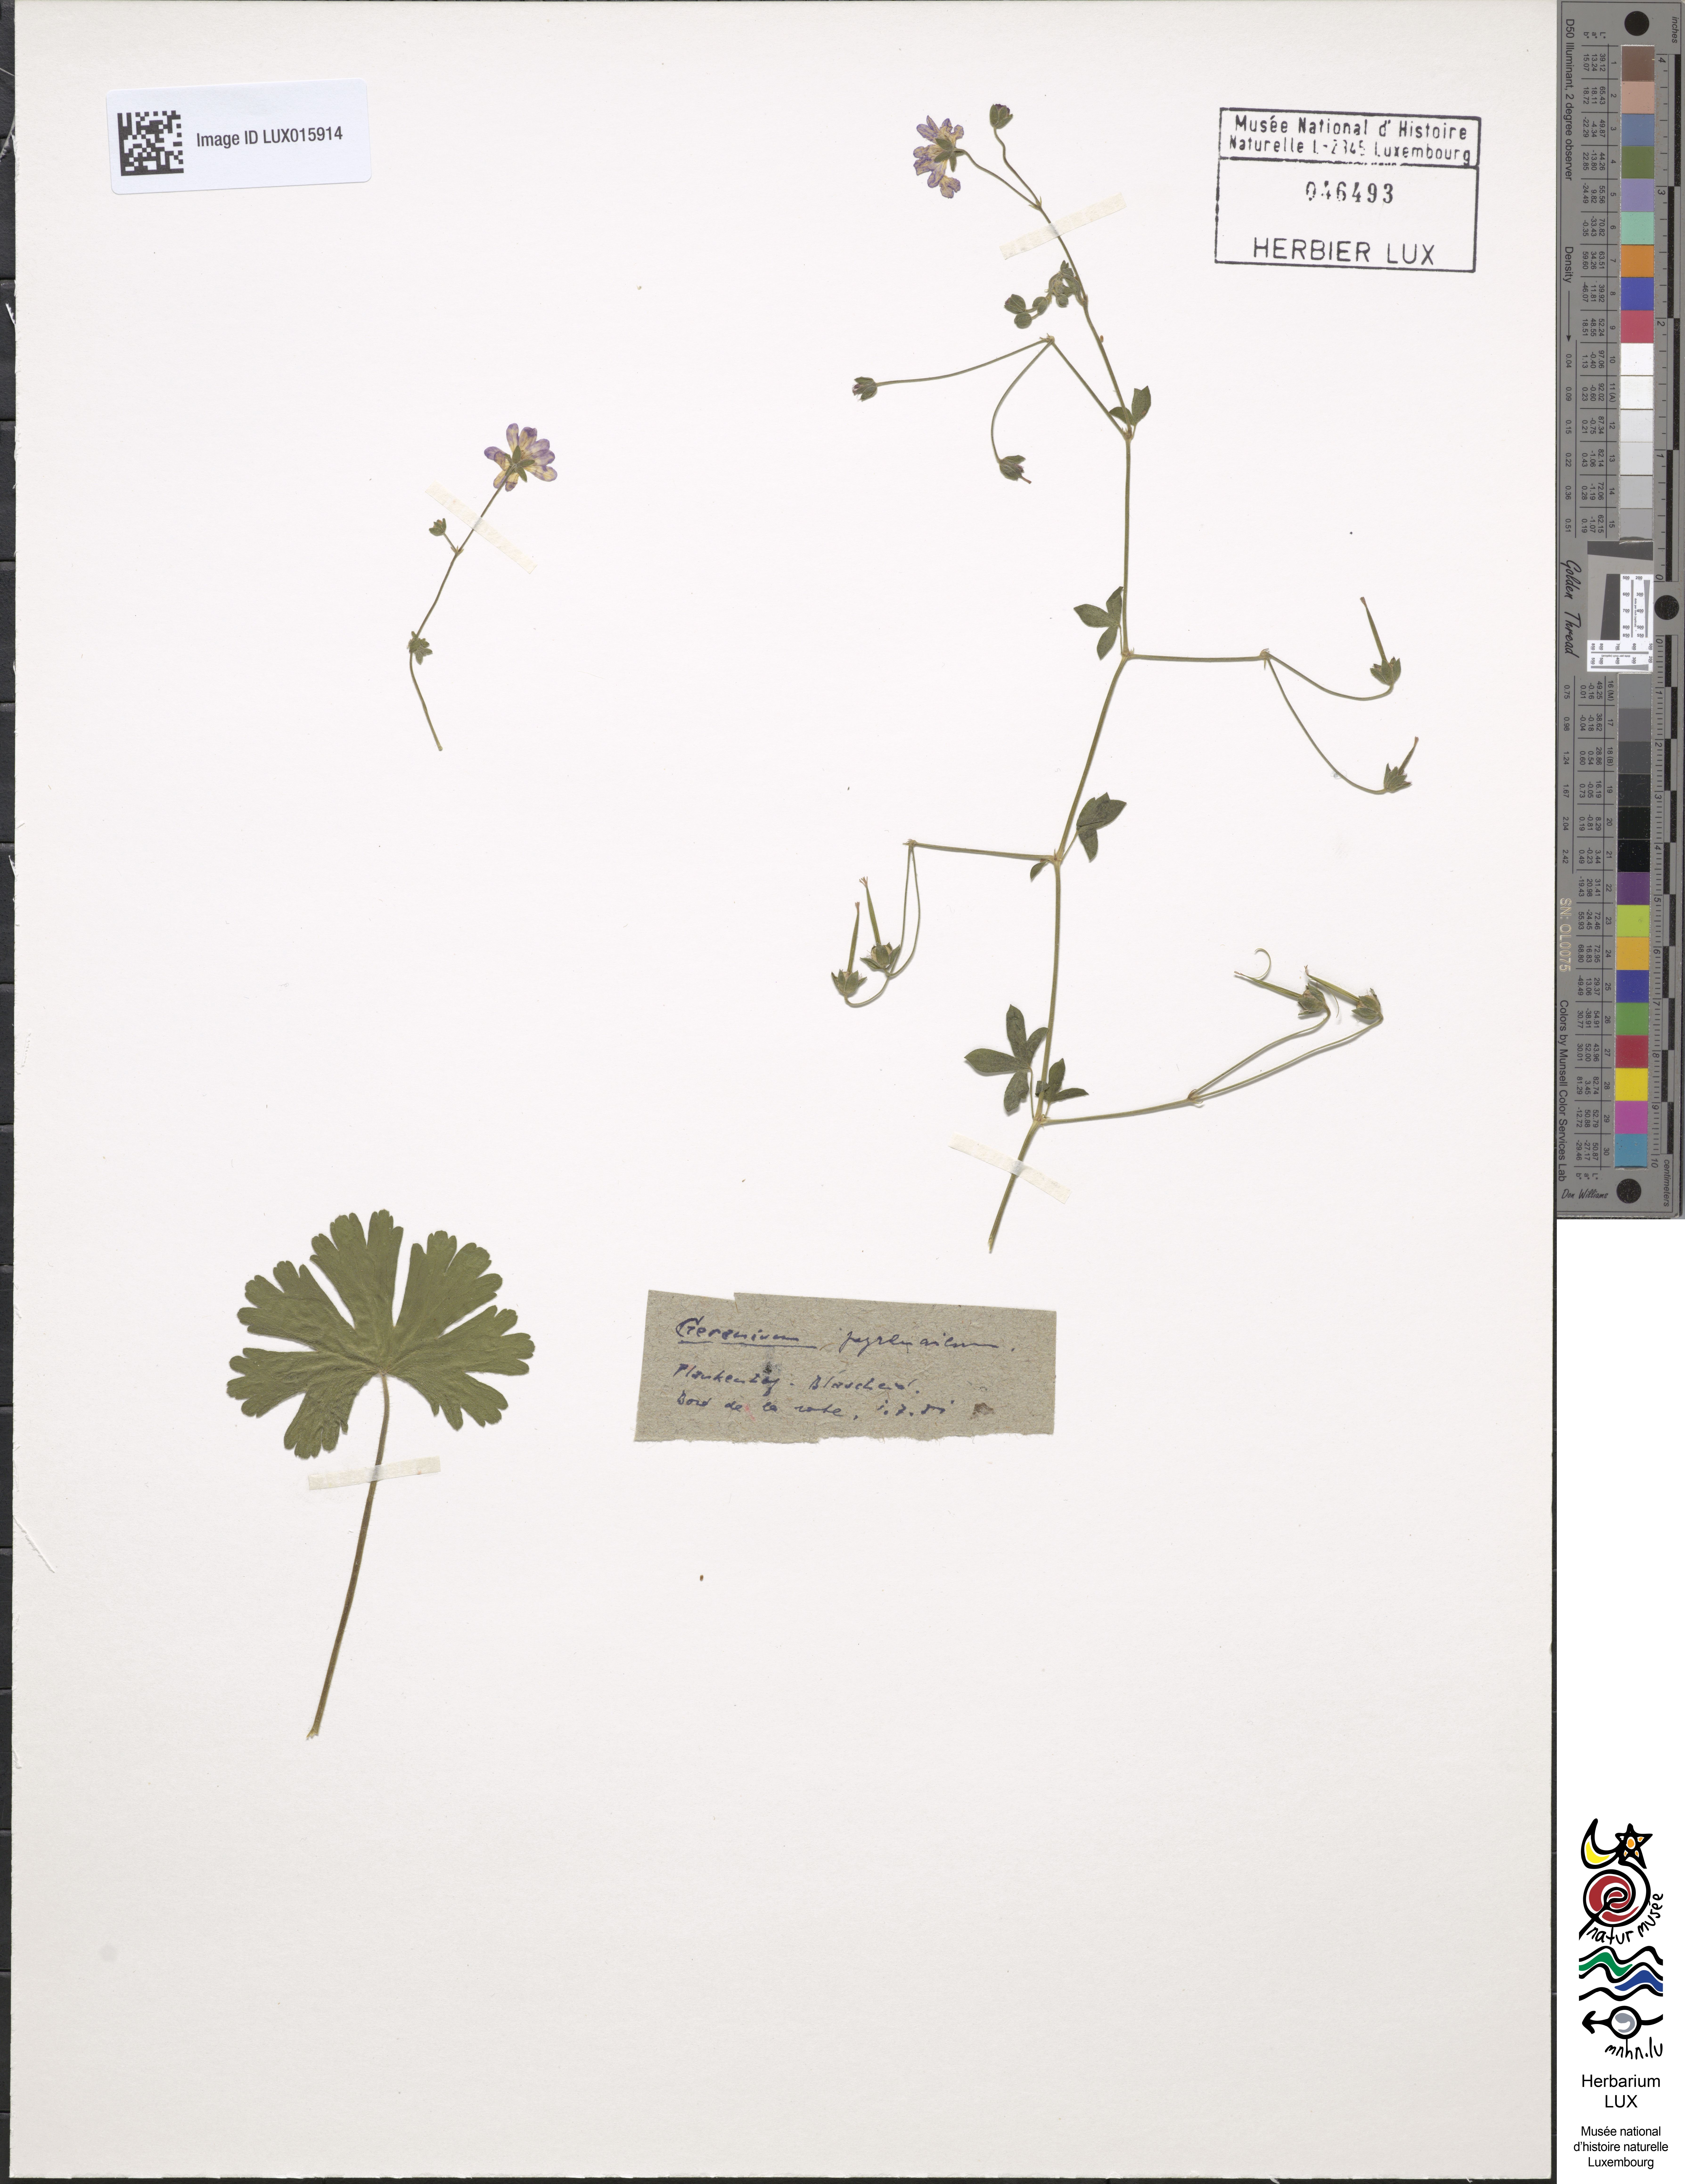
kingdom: Plantae
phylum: Tracheophyta
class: Magnoliopsida
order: Geraniales
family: Geraniaceae
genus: Geranium
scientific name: Geranium pyrenaicum
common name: Hedgerow crane's-bill
